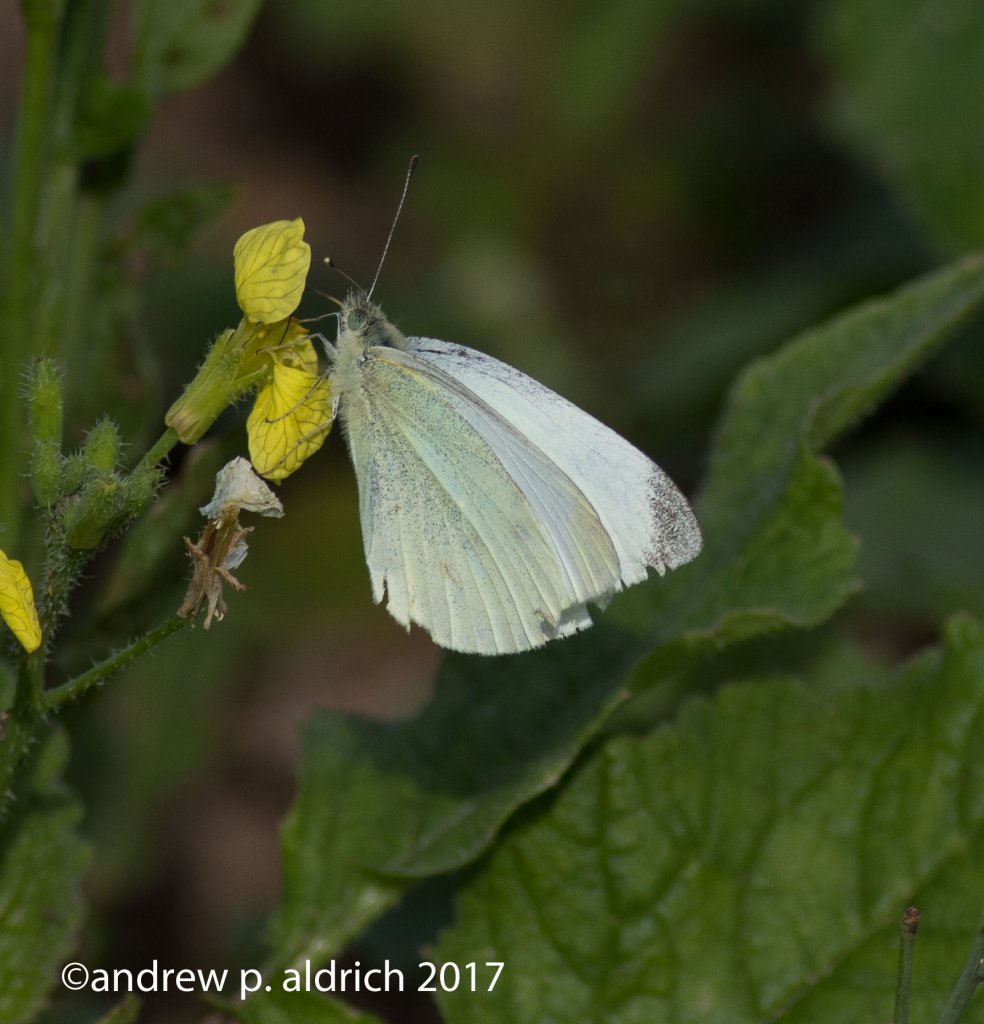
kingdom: Animalia
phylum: Arthropoda
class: Insecta
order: Lepidoptera
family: Pieridae
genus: Pieris
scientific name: Pieris rapae
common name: Cabbage White
